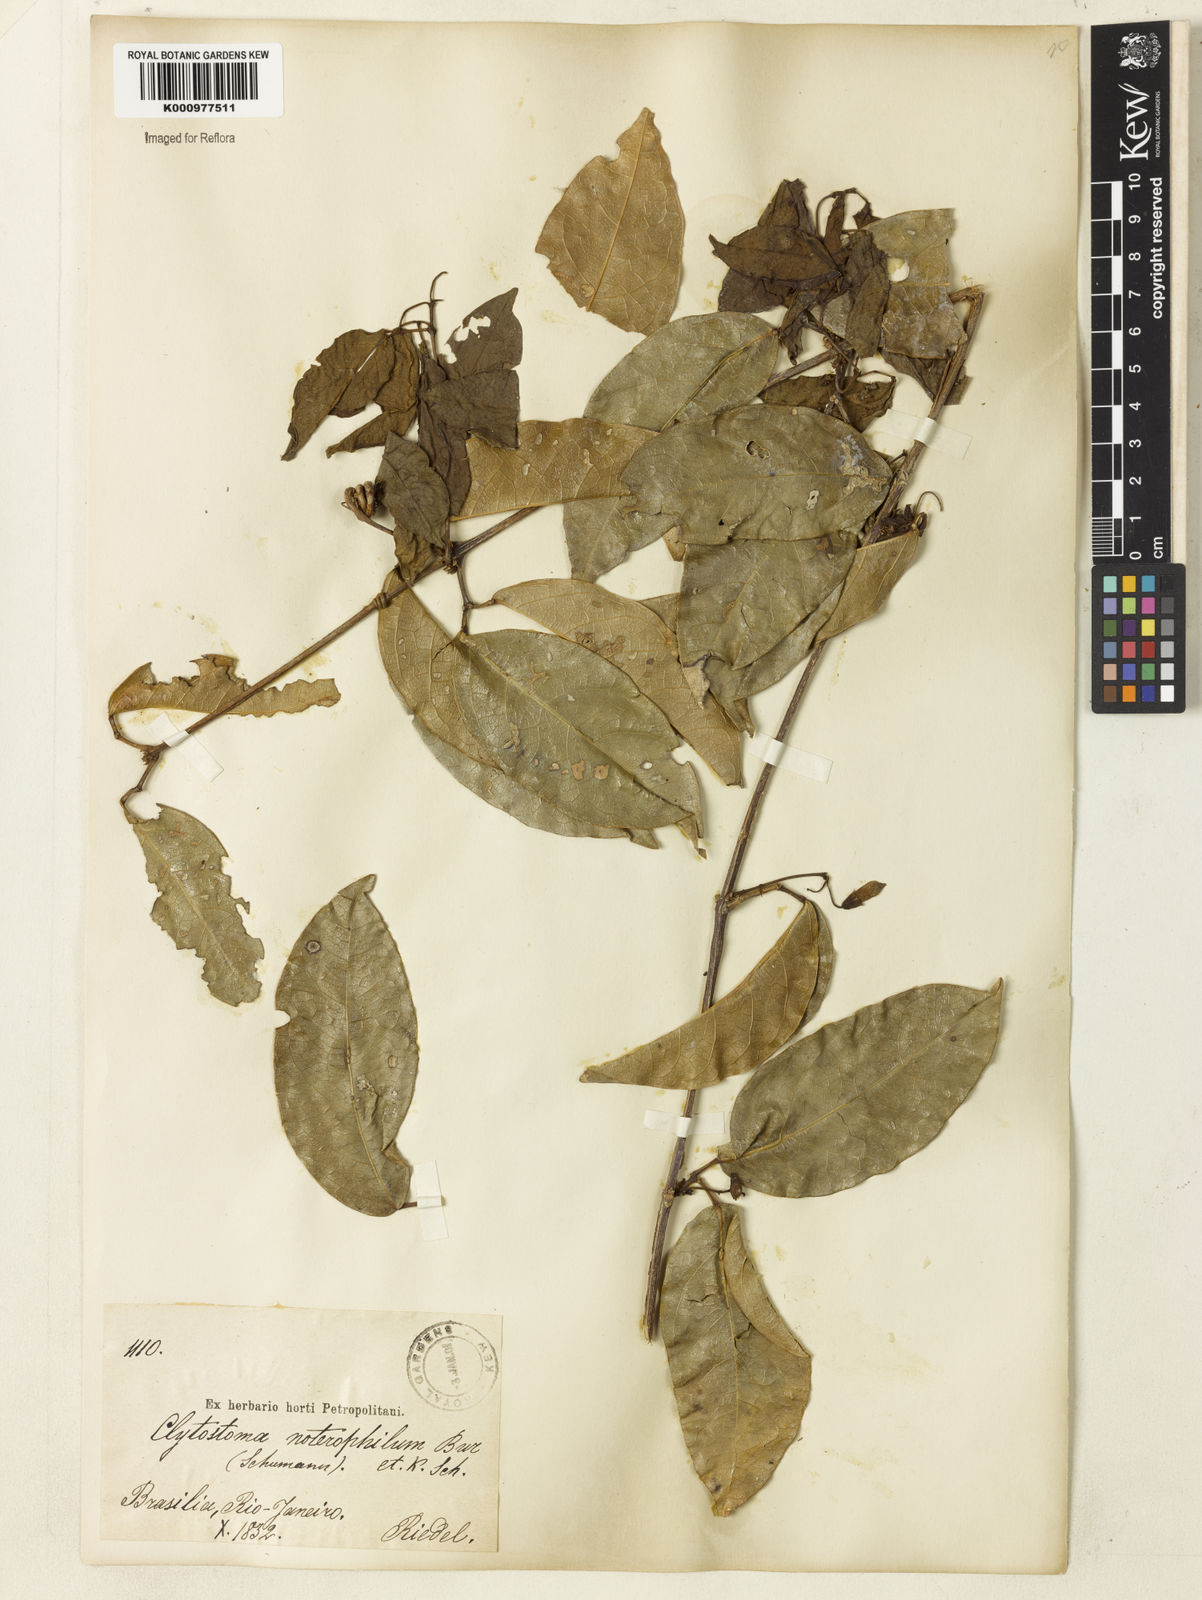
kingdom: Plantae
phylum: Tracheophyta
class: Magnoliopsida
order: Lamiales
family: Bignoniaceae
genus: Bignonia
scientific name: Bignonia binata
